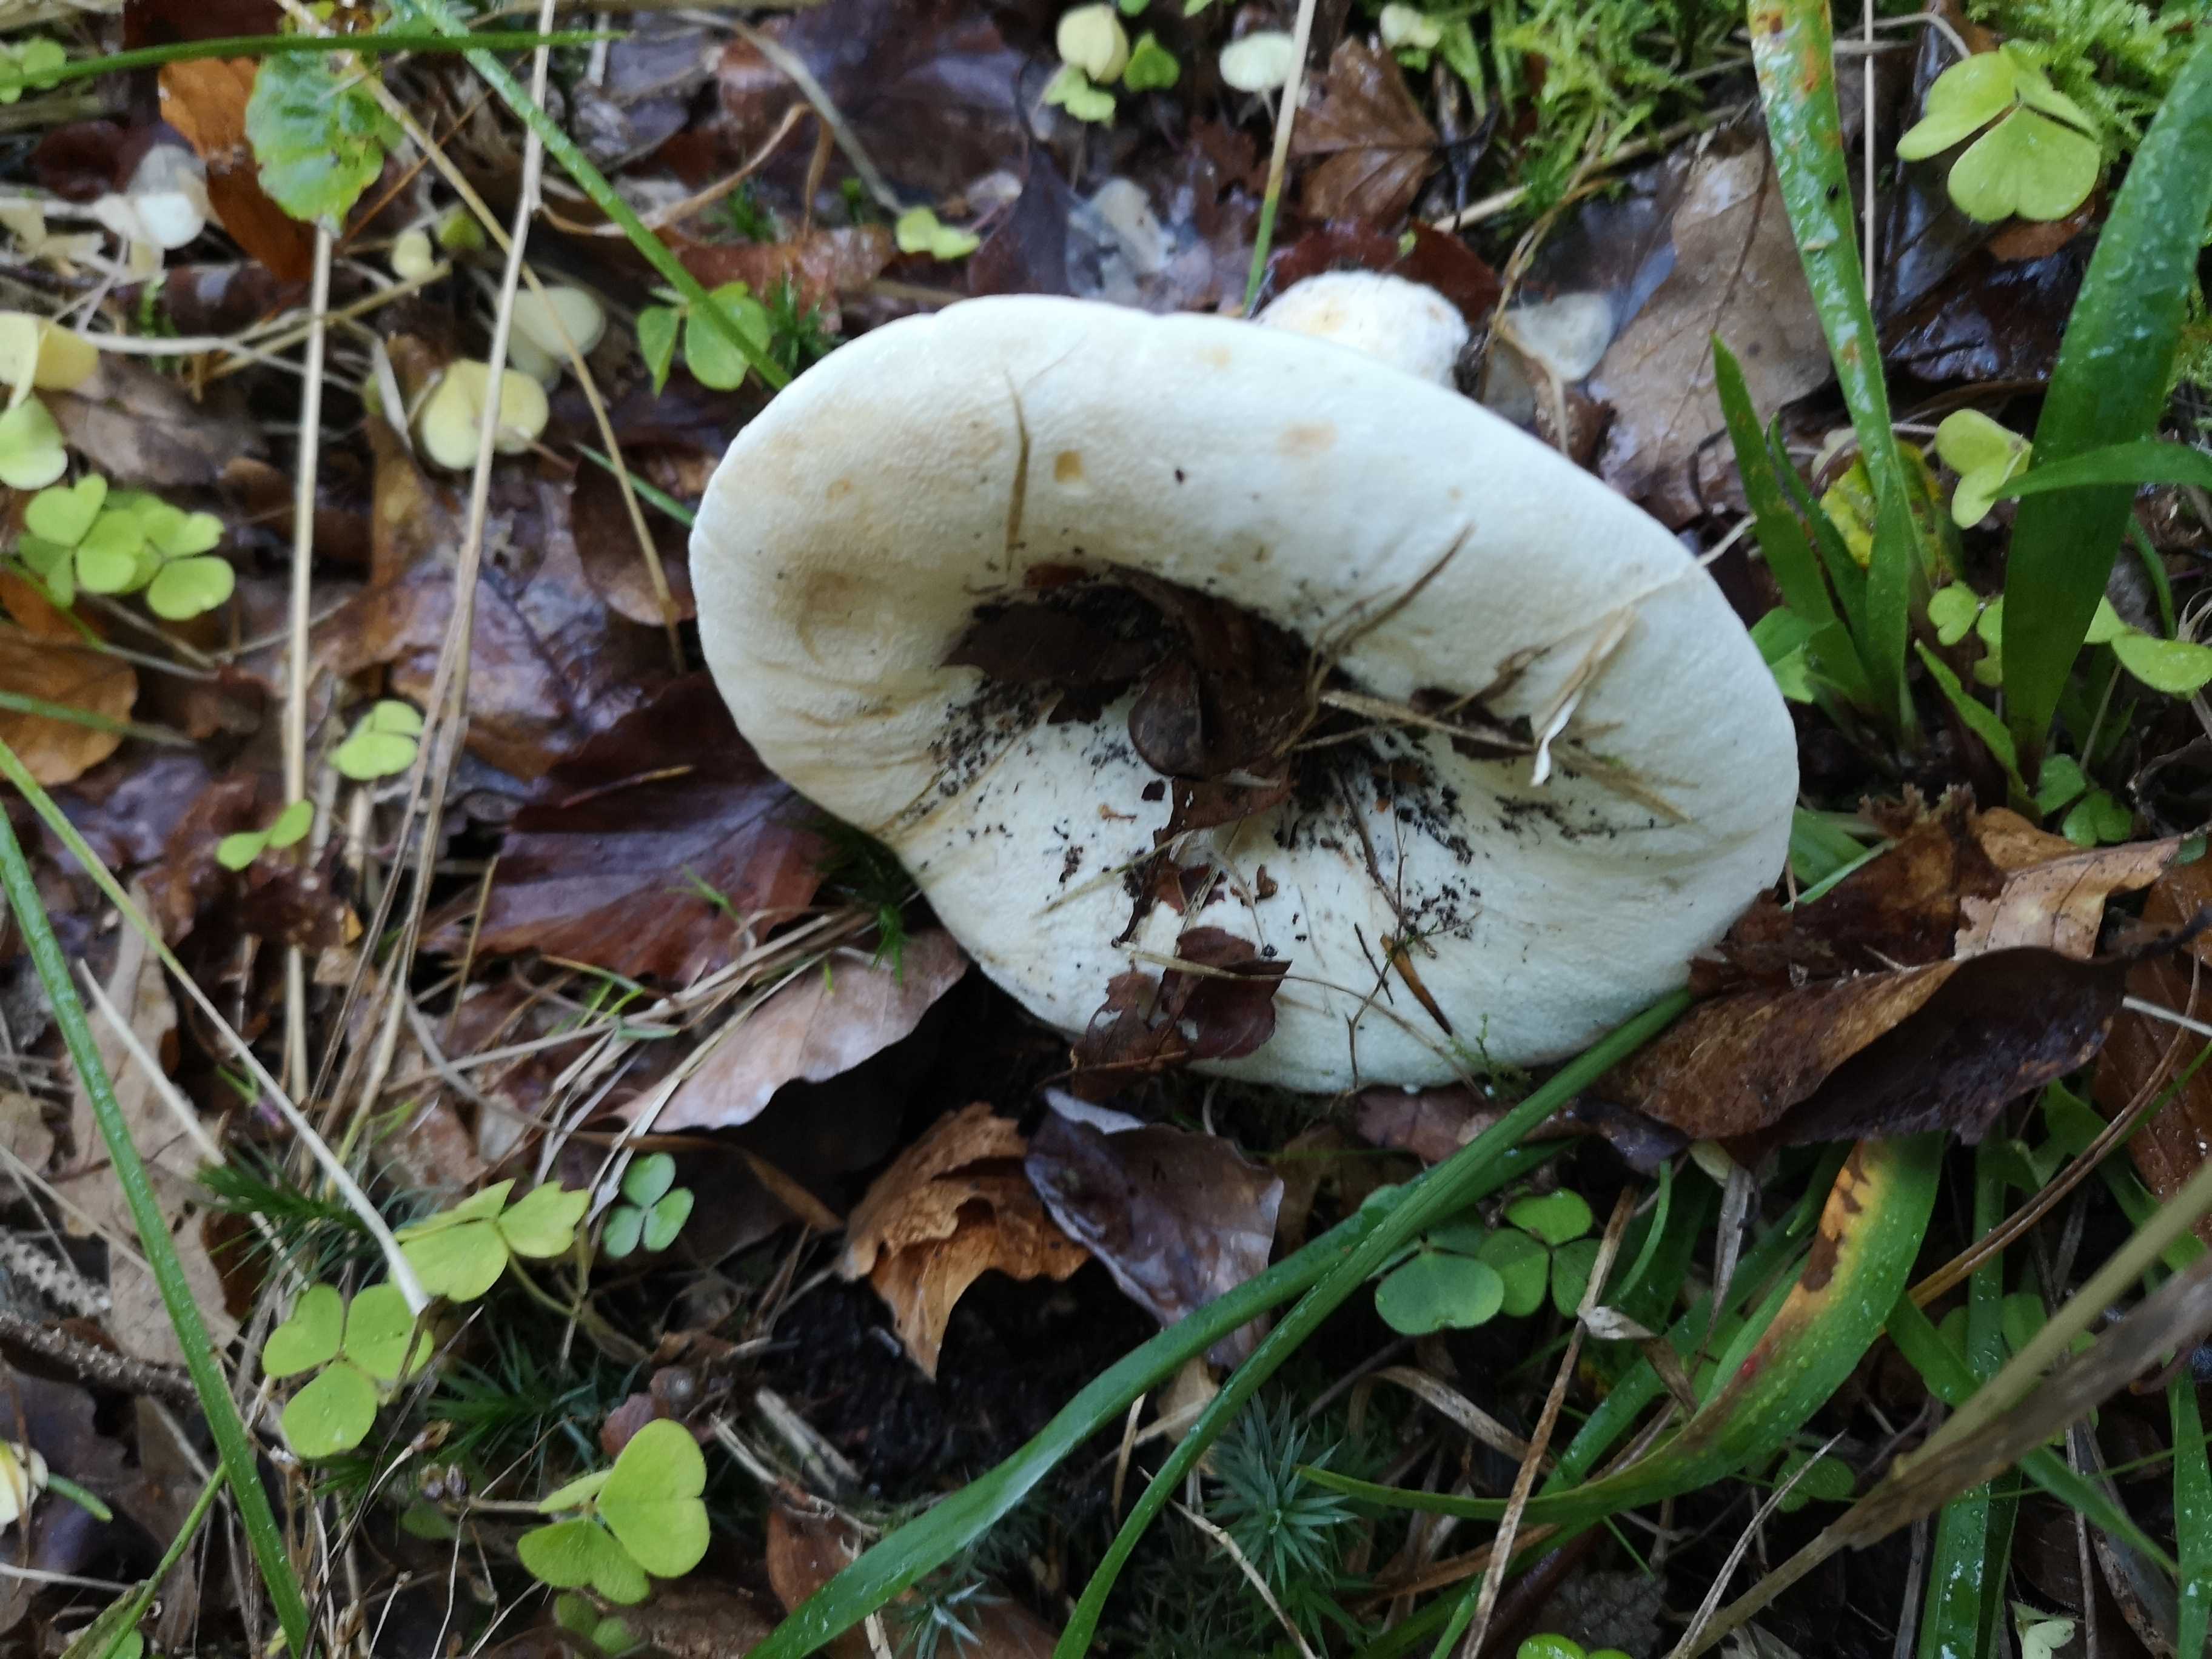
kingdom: Fungi
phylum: Basidiomycota
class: Agaricomycetes
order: Russulales
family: Russulaceae
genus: Lactifluus
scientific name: Lactifluus
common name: mælkehat
